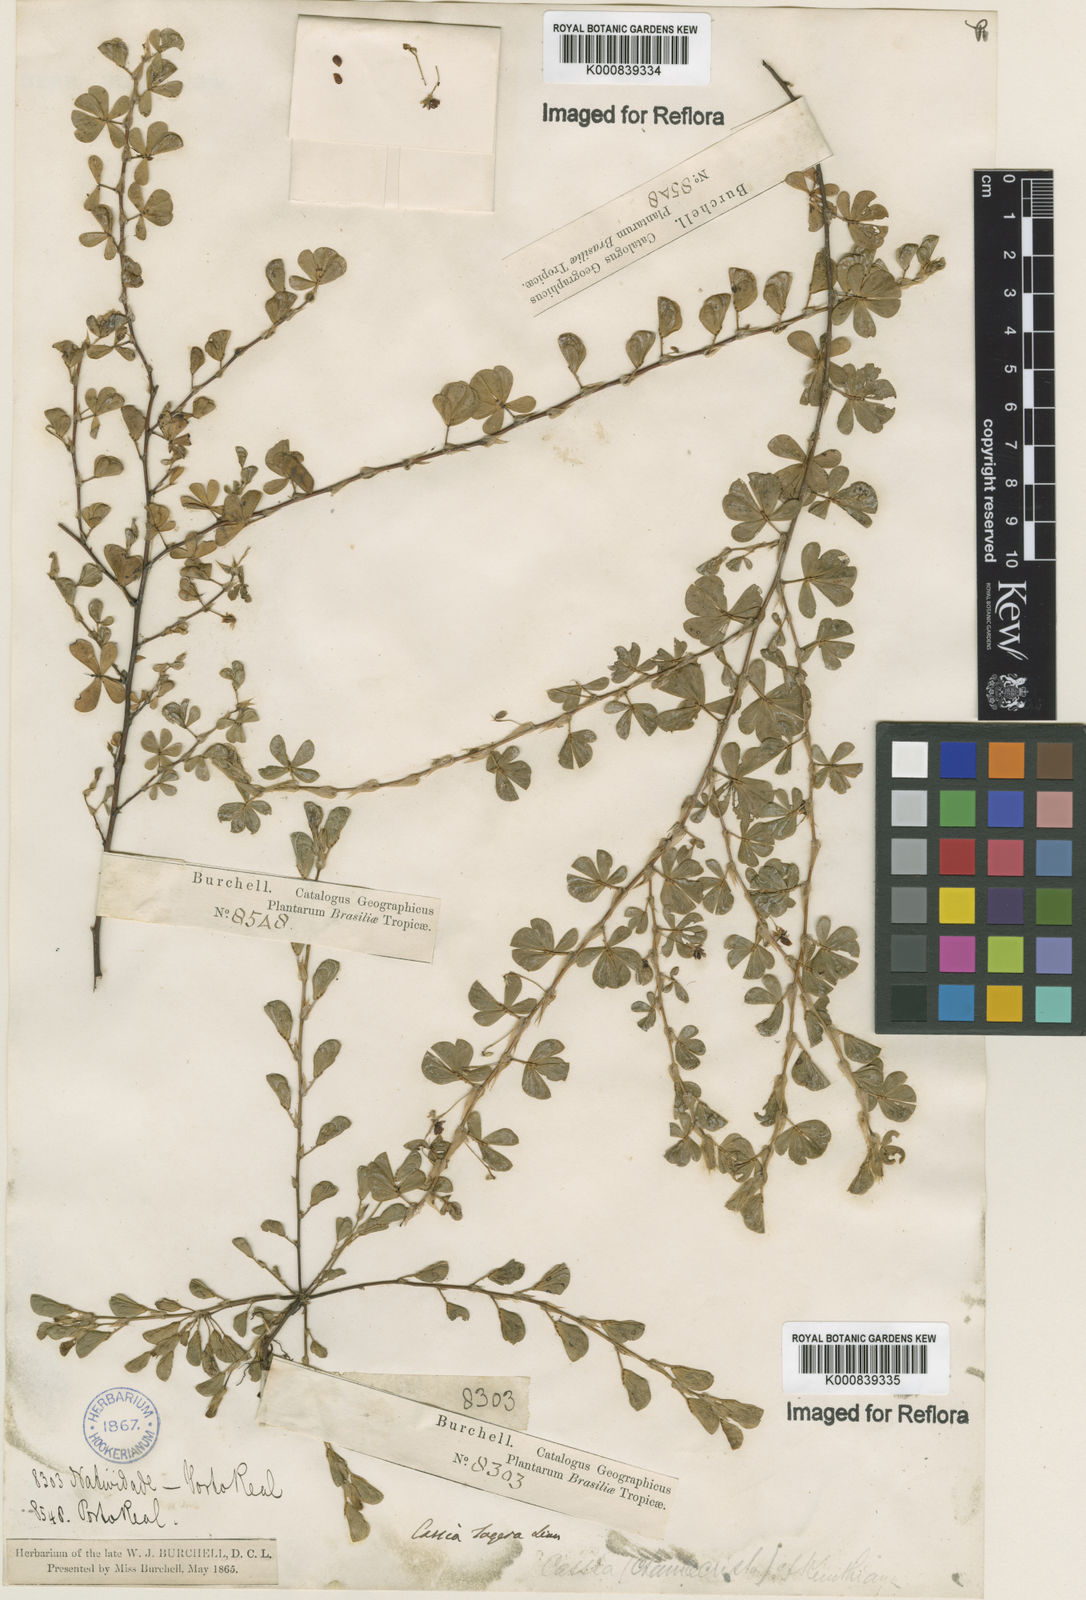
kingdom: Plantae
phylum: Tracheophyta
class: Magnoliopsida
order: Fabales
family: Fabaceae
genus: Chamaecrista
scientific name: Chamaecrista kunthiana
